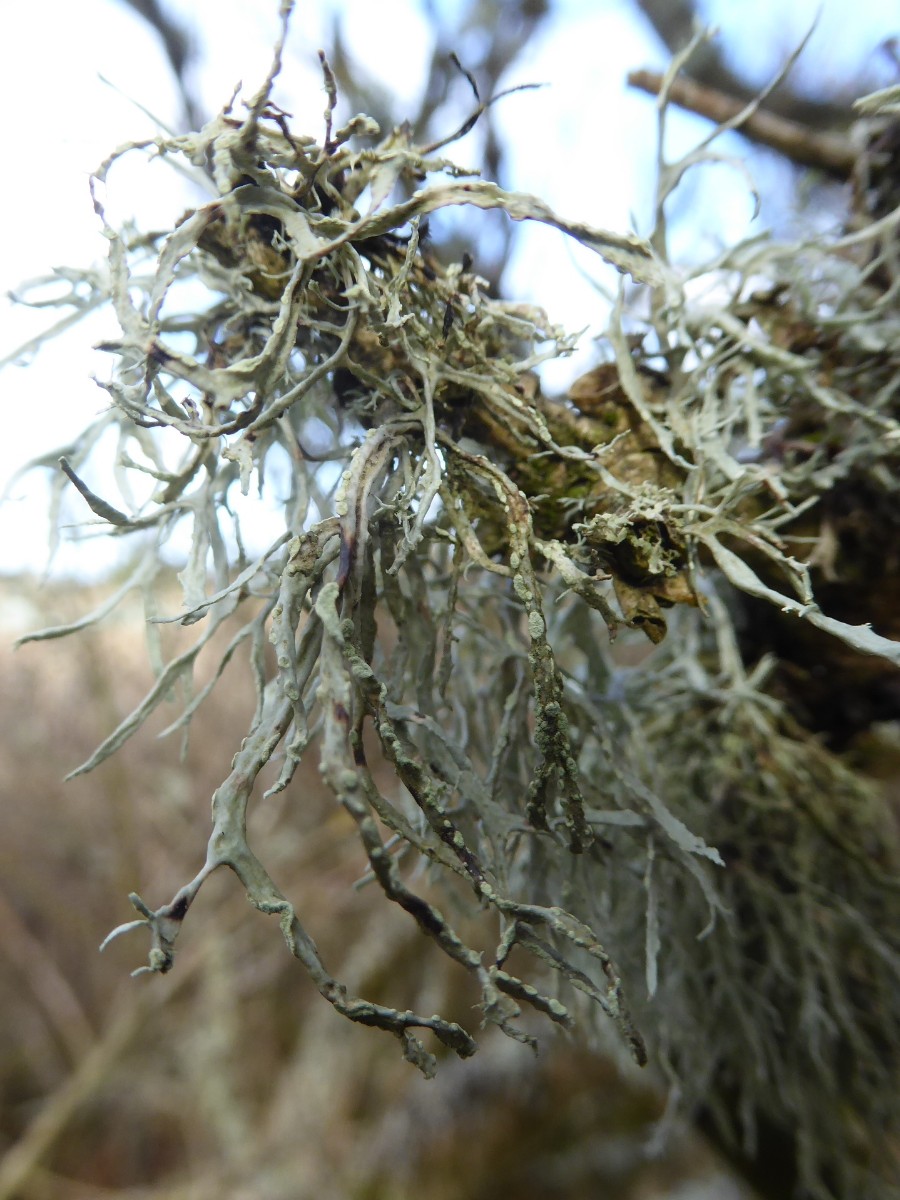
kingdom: Fungi
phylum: Ascomycota
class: Lecanoromycetes
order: Lecanorales
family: Ramalinaceae
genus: Ramalina
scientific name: Ramalina farinacea
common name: melet grenlav
